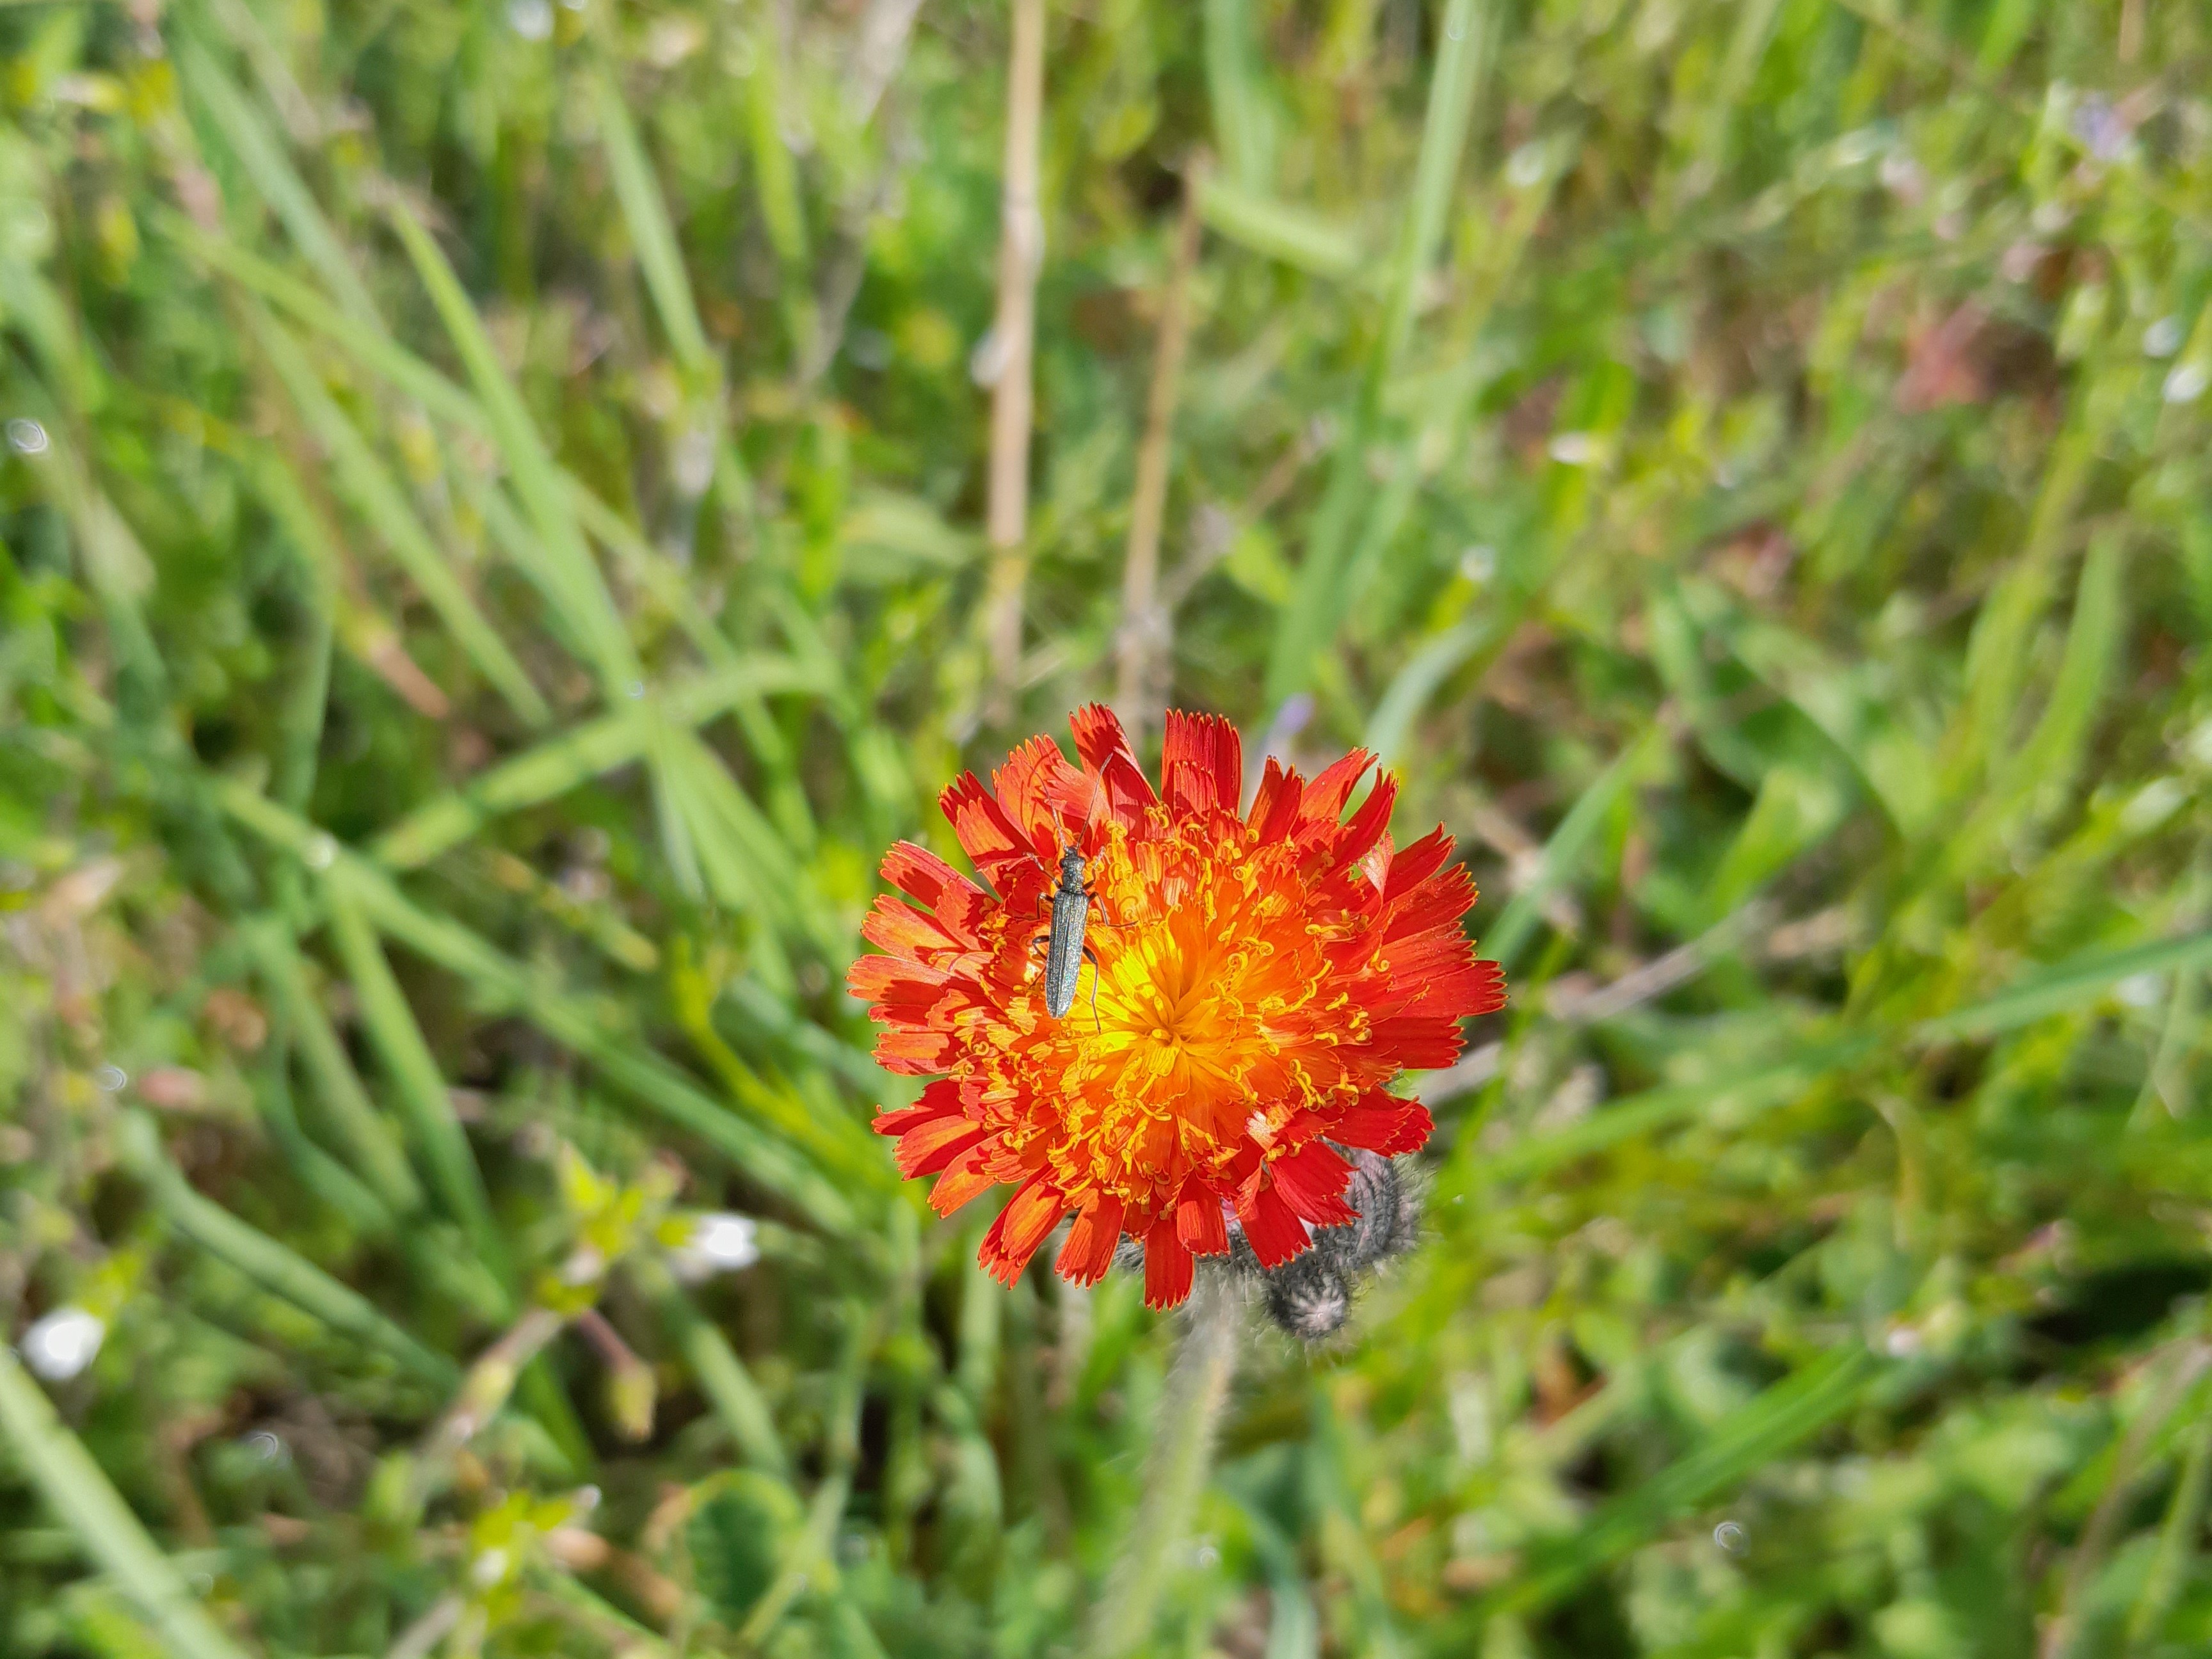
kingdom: Plantae
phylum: Tracheophyta
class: Magnoliopsida
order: Asterales
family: Asteraceae
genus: Pilosella
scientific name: Pilosella aurantiaca
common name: Pomerans-høgeurt
